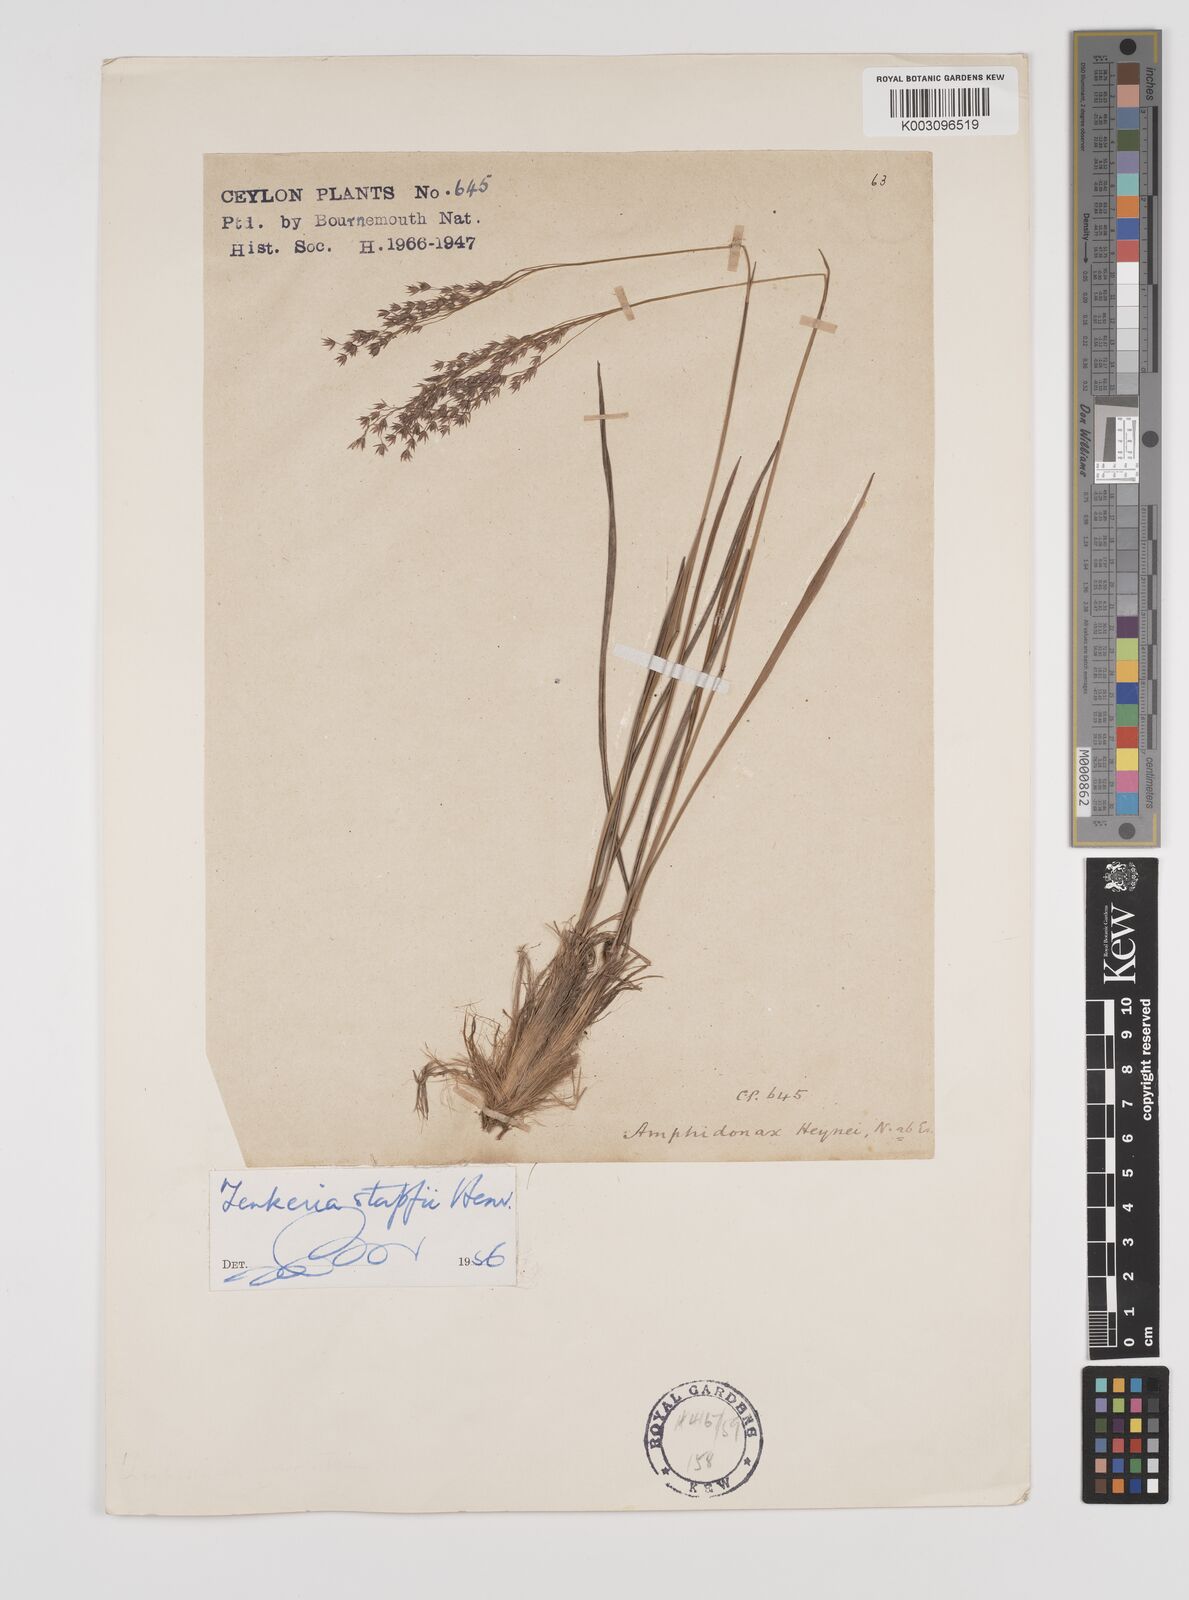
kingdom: Plantae
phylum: Tracheophyta
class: Liliopsida
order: Poales
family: Poaceae
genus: Zenkeria
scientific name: Zenkeria stapfii
